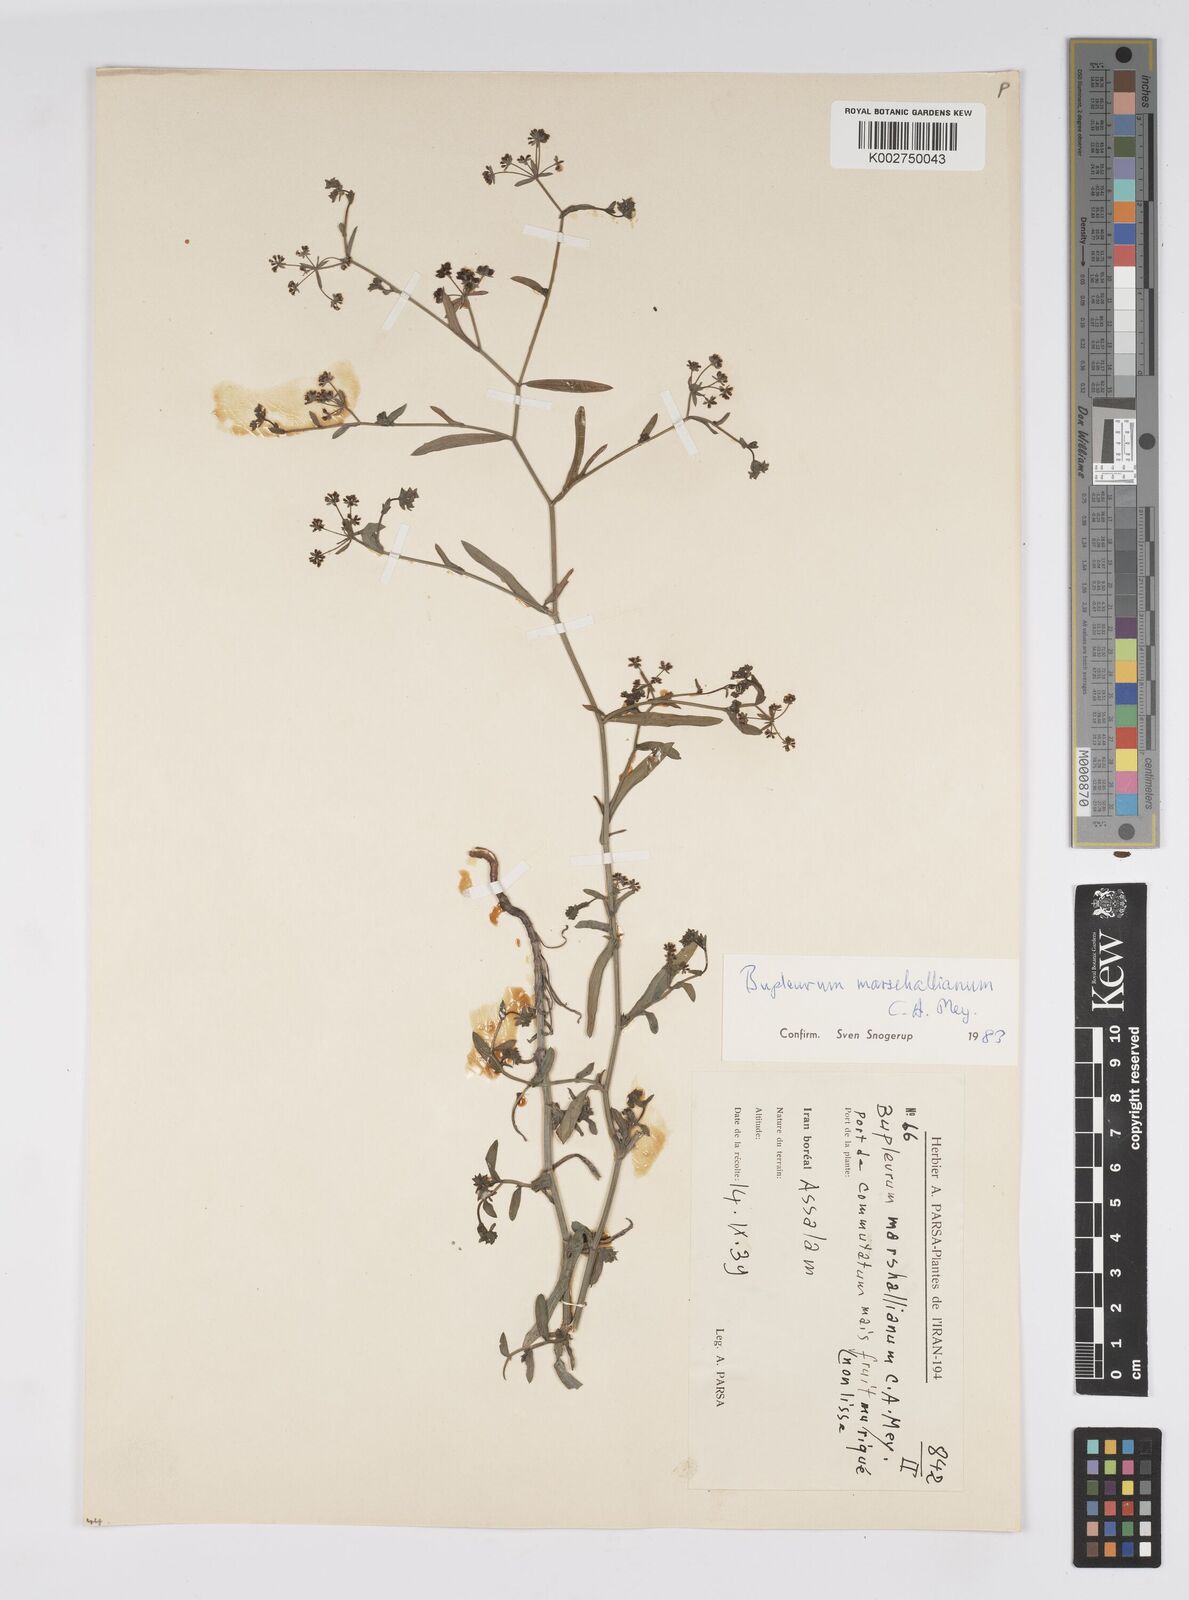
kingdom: Plantae
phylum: Tracheophyta
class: Magnoliopsida
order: Apiales
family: Apiaceae
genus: Bupleurum
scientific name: Bupleurum marschallianum
